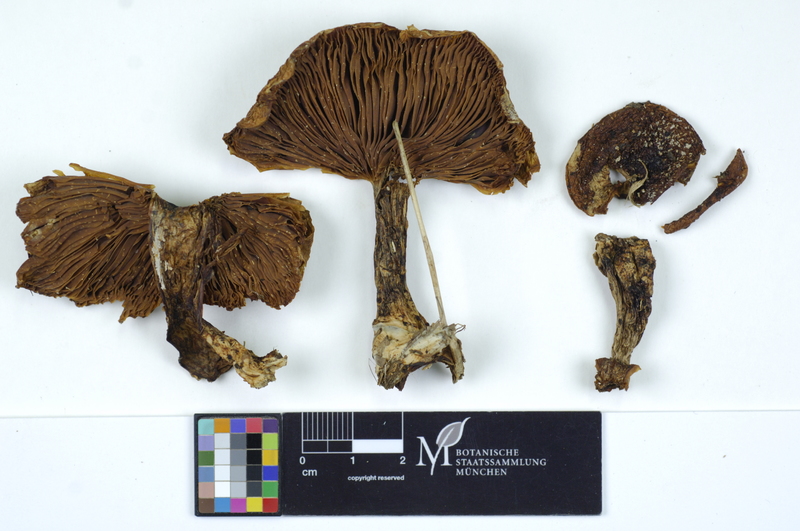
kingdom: Fungi
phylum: Basidiomycota
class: Agaricomycetes
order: Agaricales
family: Tricholomataceae
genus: Lepista
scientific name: Lepista personata
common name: Field blewit
